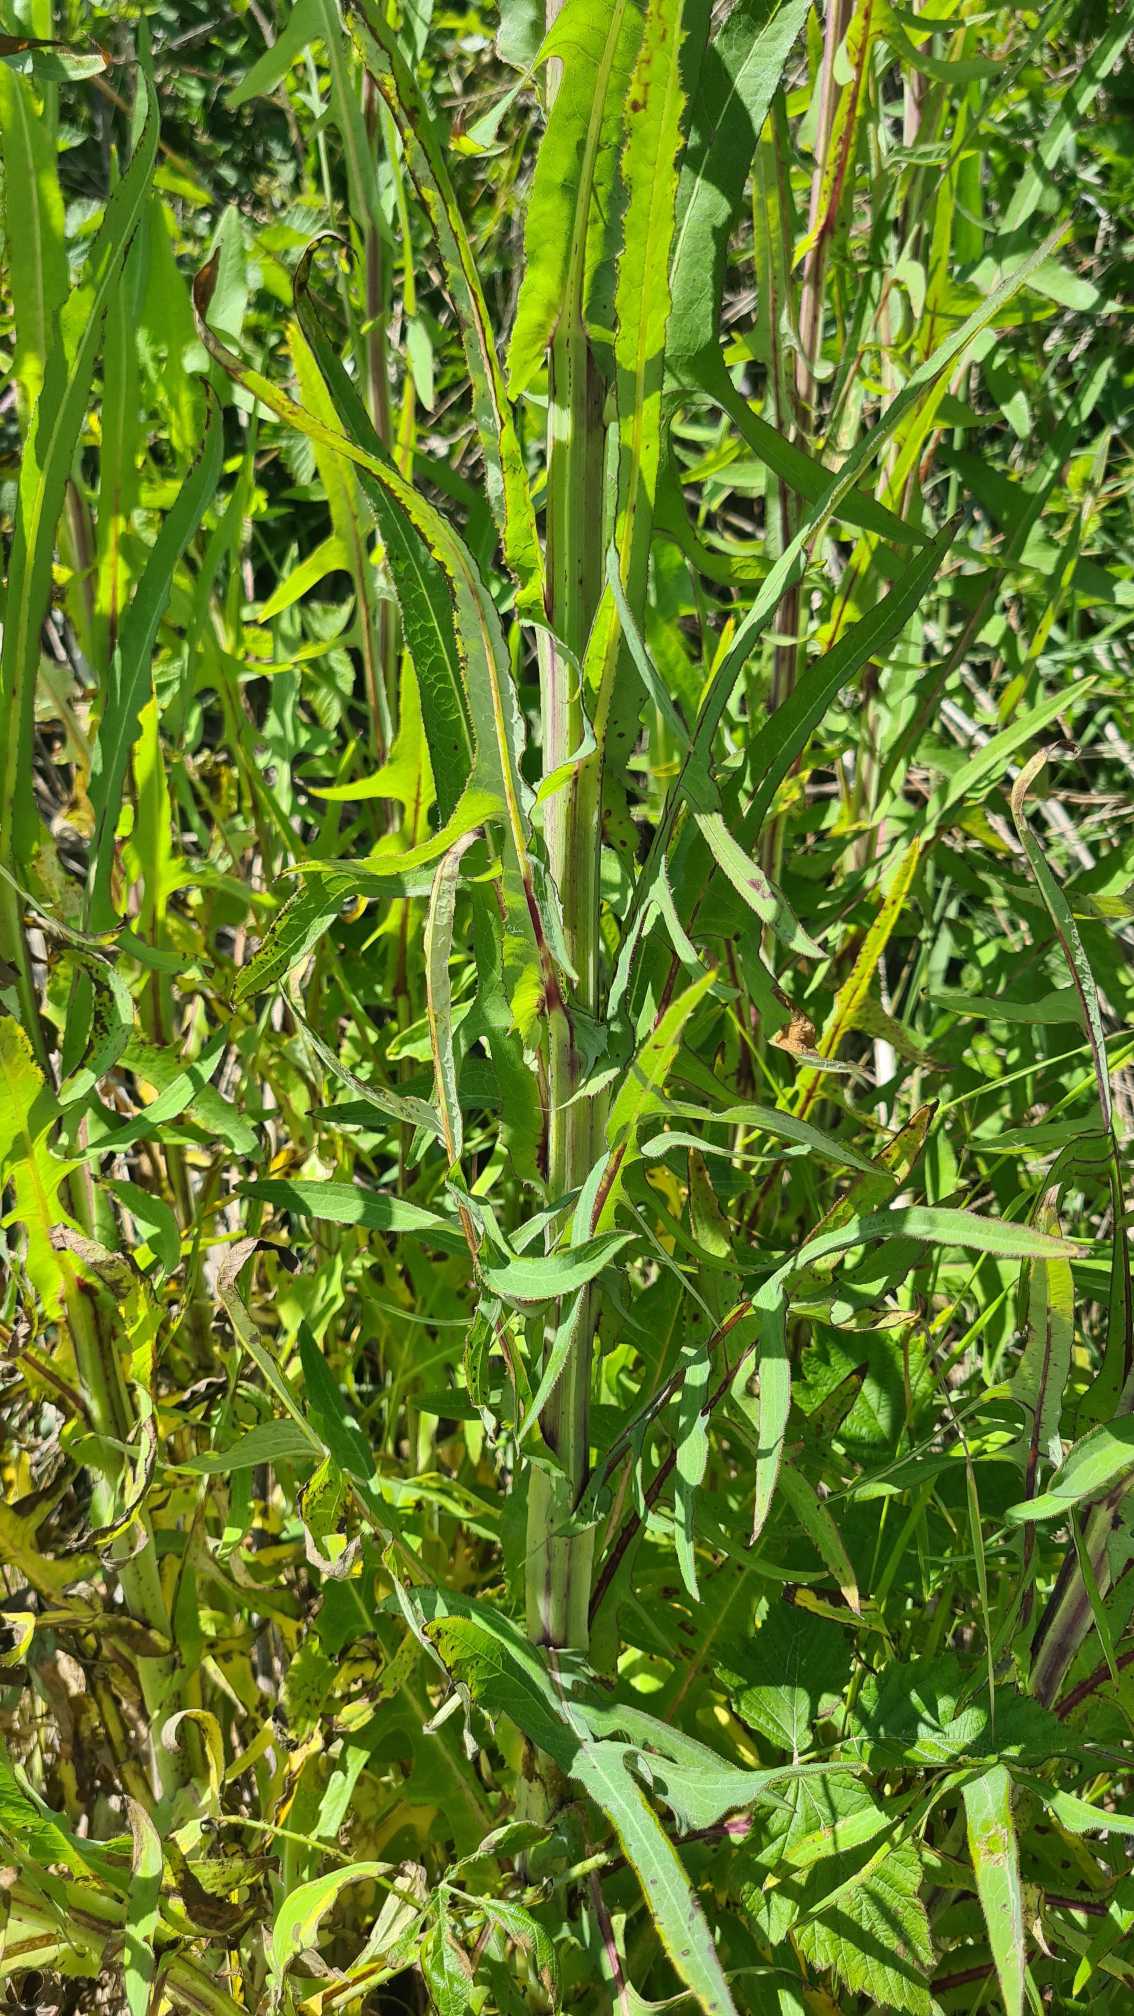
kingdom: Plantae
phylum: Tracheophyta
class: Magnoliopsida
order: Asterales
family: Asteraceae
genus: Sonchus
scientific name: Sonchus palustris
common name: Kær-svinemælk
